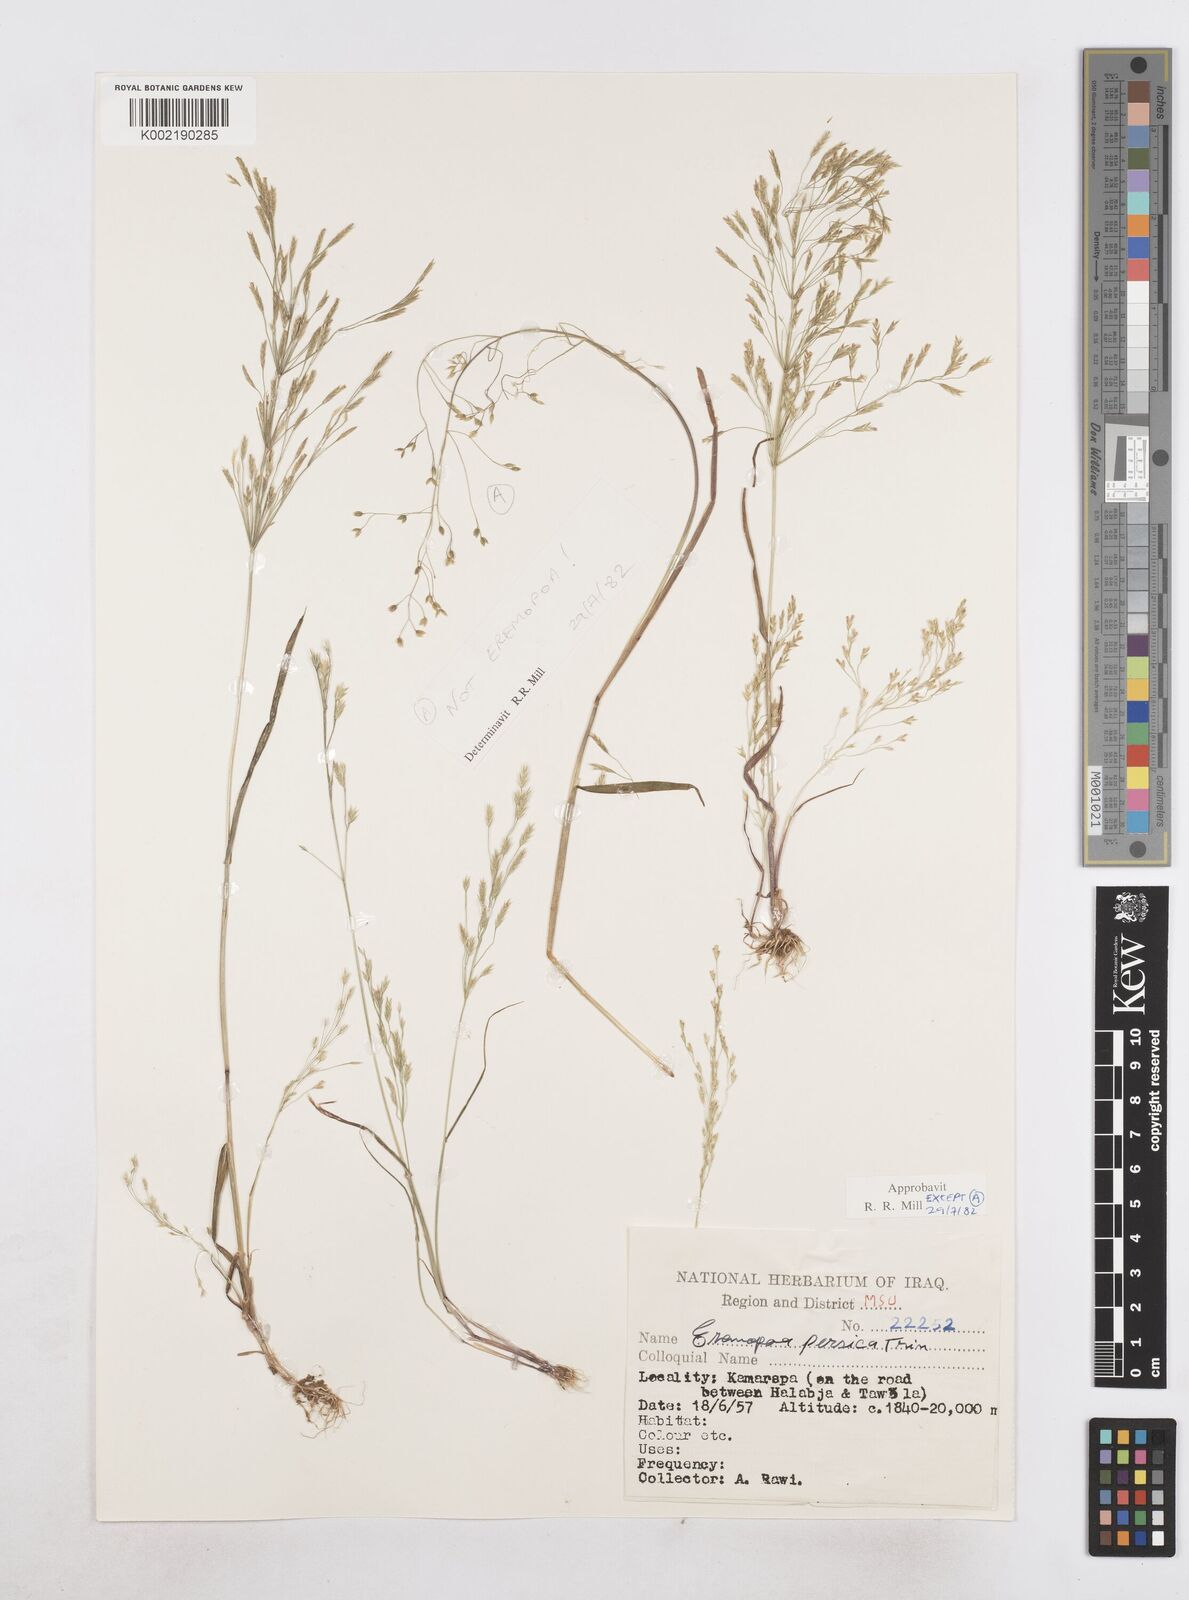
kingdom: Plantae
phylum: Tracheophyta
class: Liliopsida
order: Poales
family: Poaceae
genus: Poa
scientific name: Poa persica
